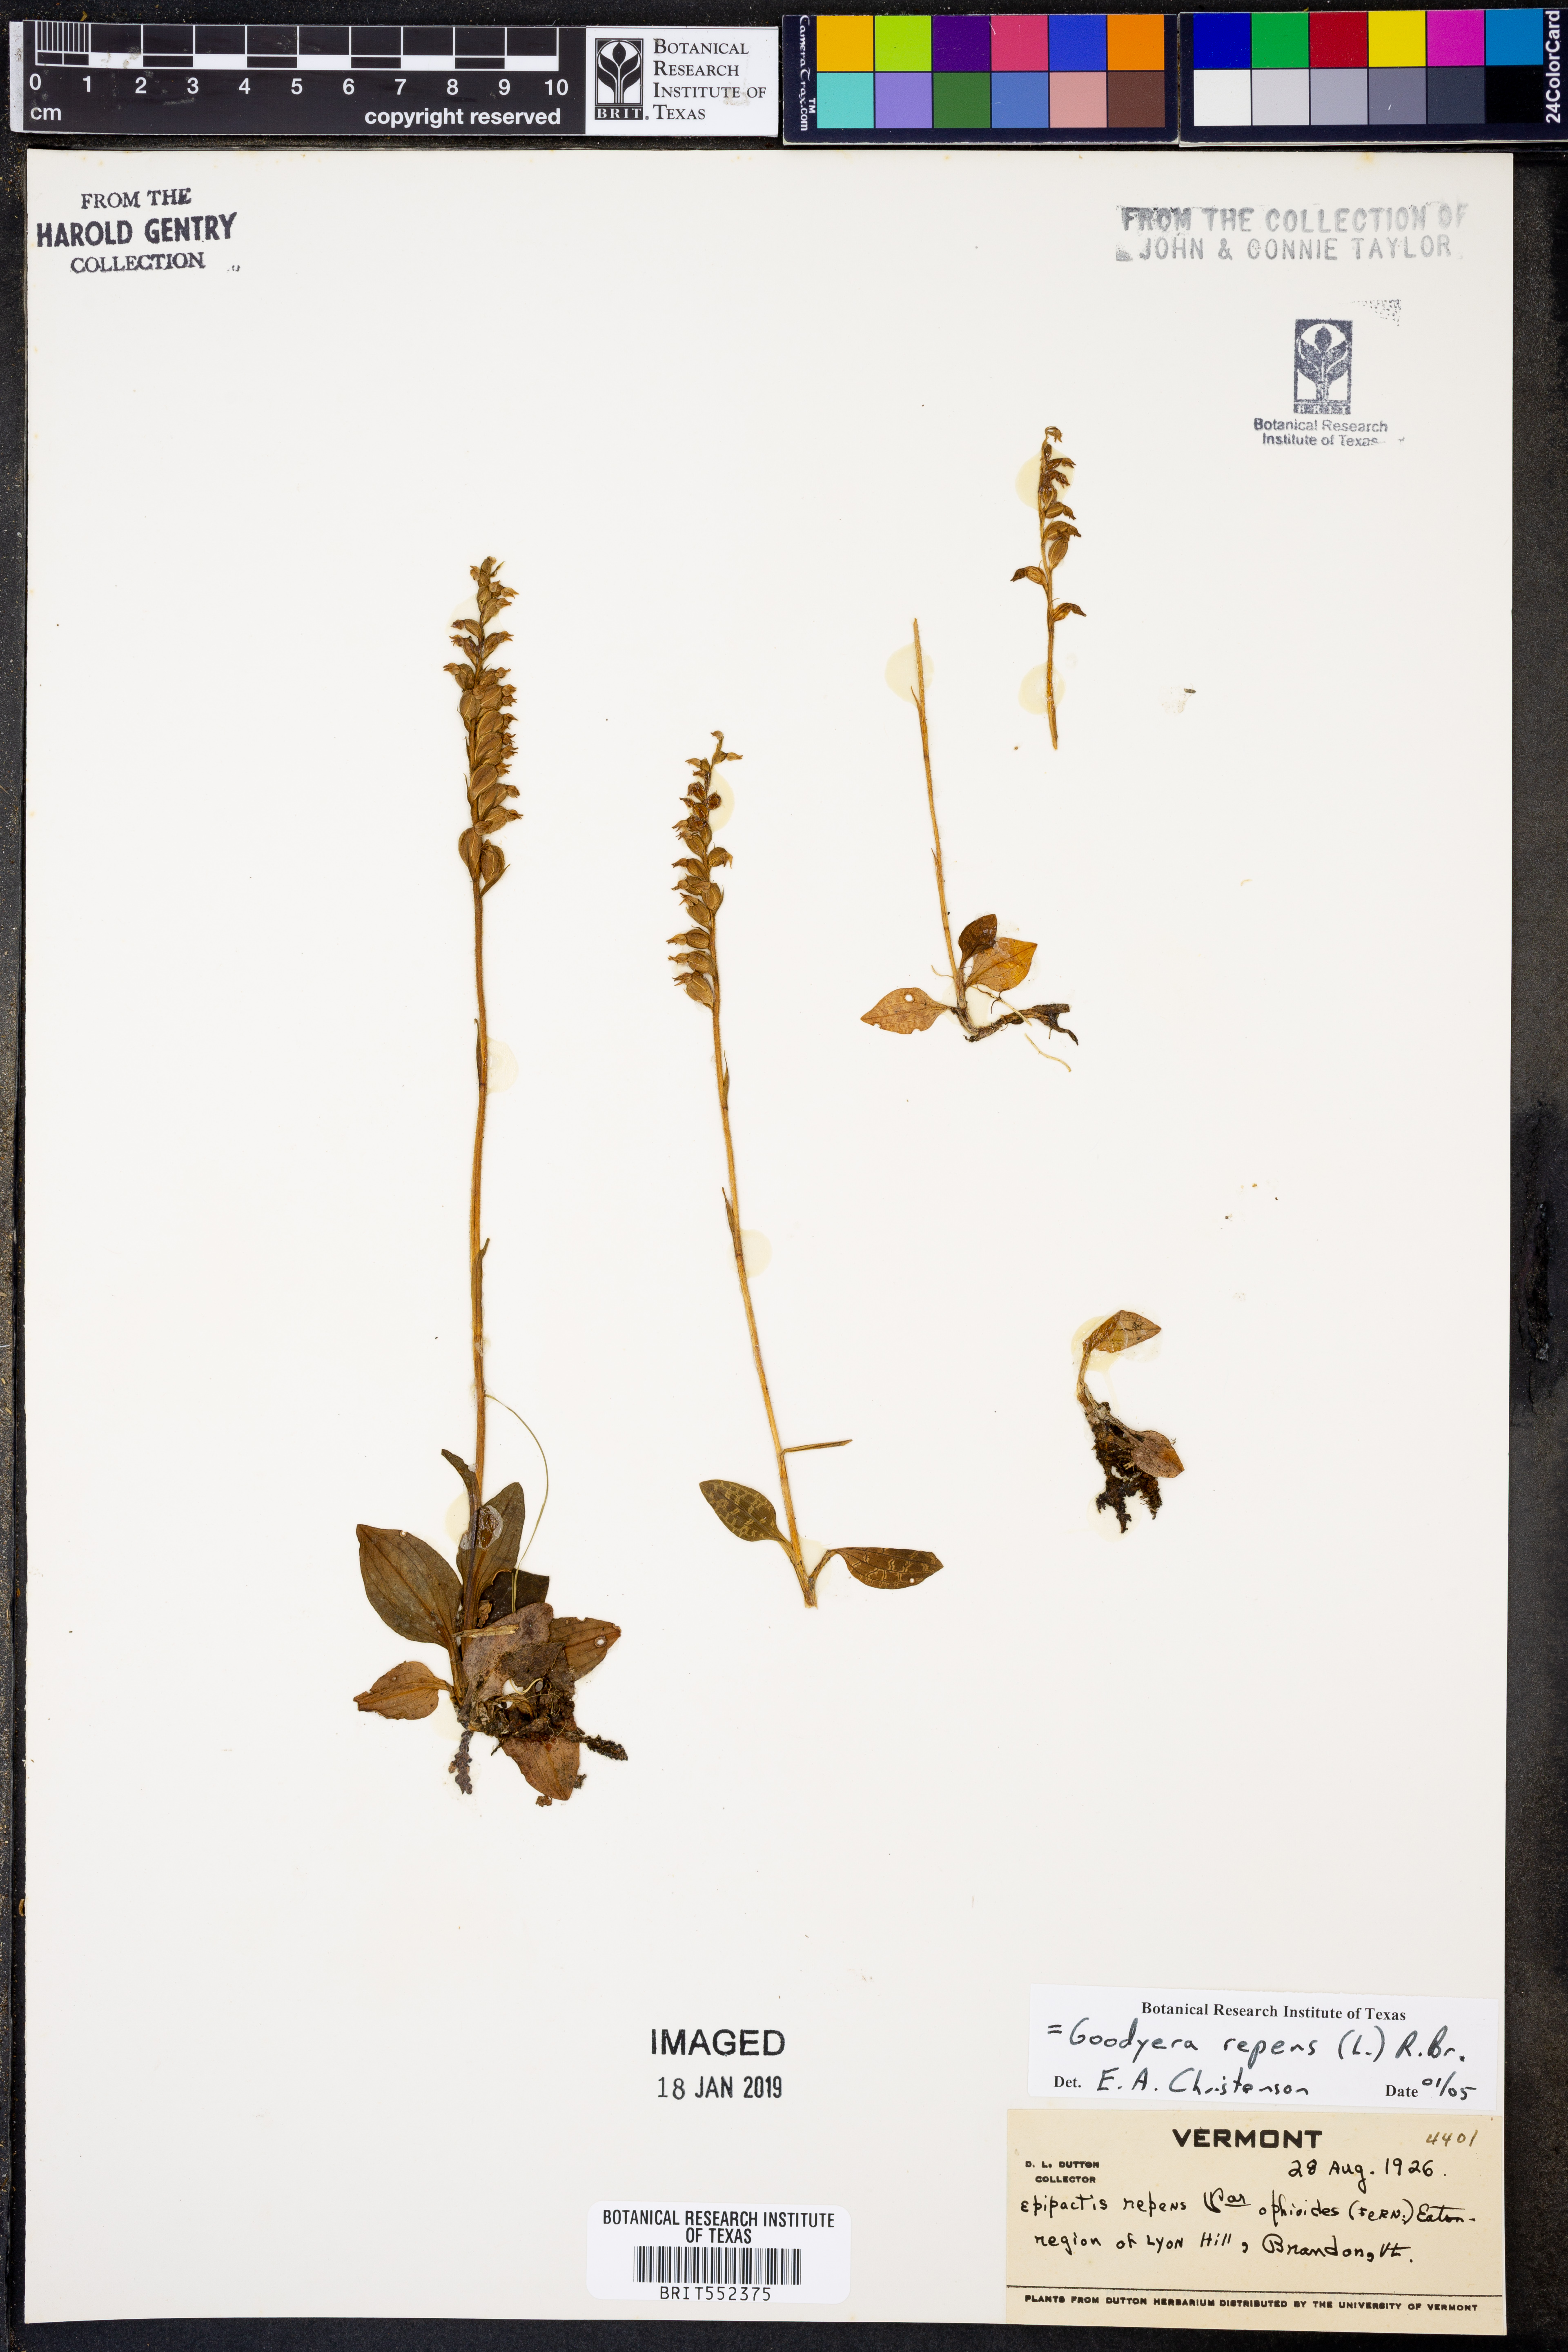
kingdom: Plantae
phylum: Tracheophyta
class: Liliopsida
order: Asparagales
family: Orchidaceae
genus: Goodyera
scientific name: Goodyera repens
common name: Creeping lady's-tresses
